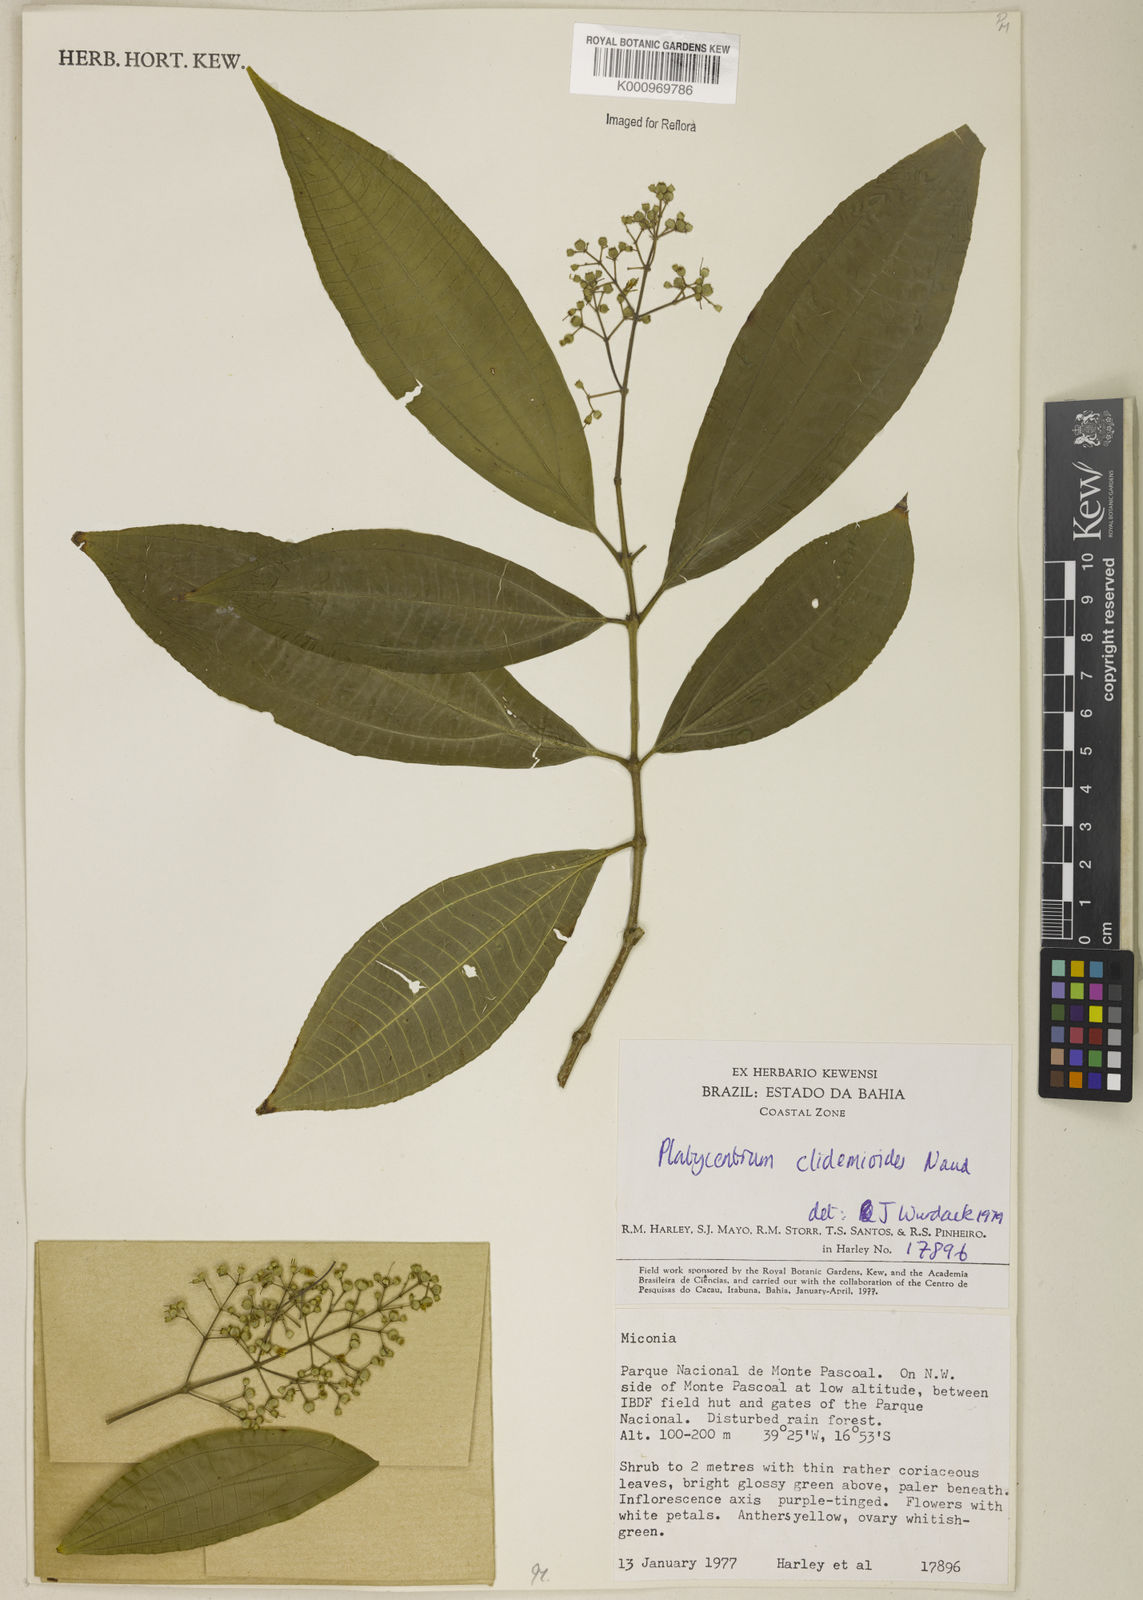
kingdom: Plantae
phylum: Tracheophyta
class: Magnoliopsida
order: Myrtales
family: Melastomataceae
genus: Miconia
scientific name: Miconia stenopetala
